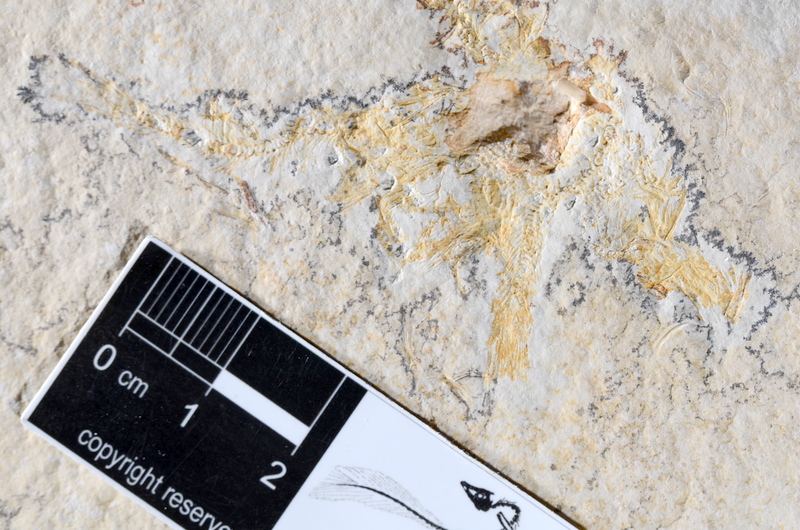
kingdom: Animalia
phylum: Chordata
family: Ascalaboidae
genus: Tharsis
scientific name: Tharsis dubius
